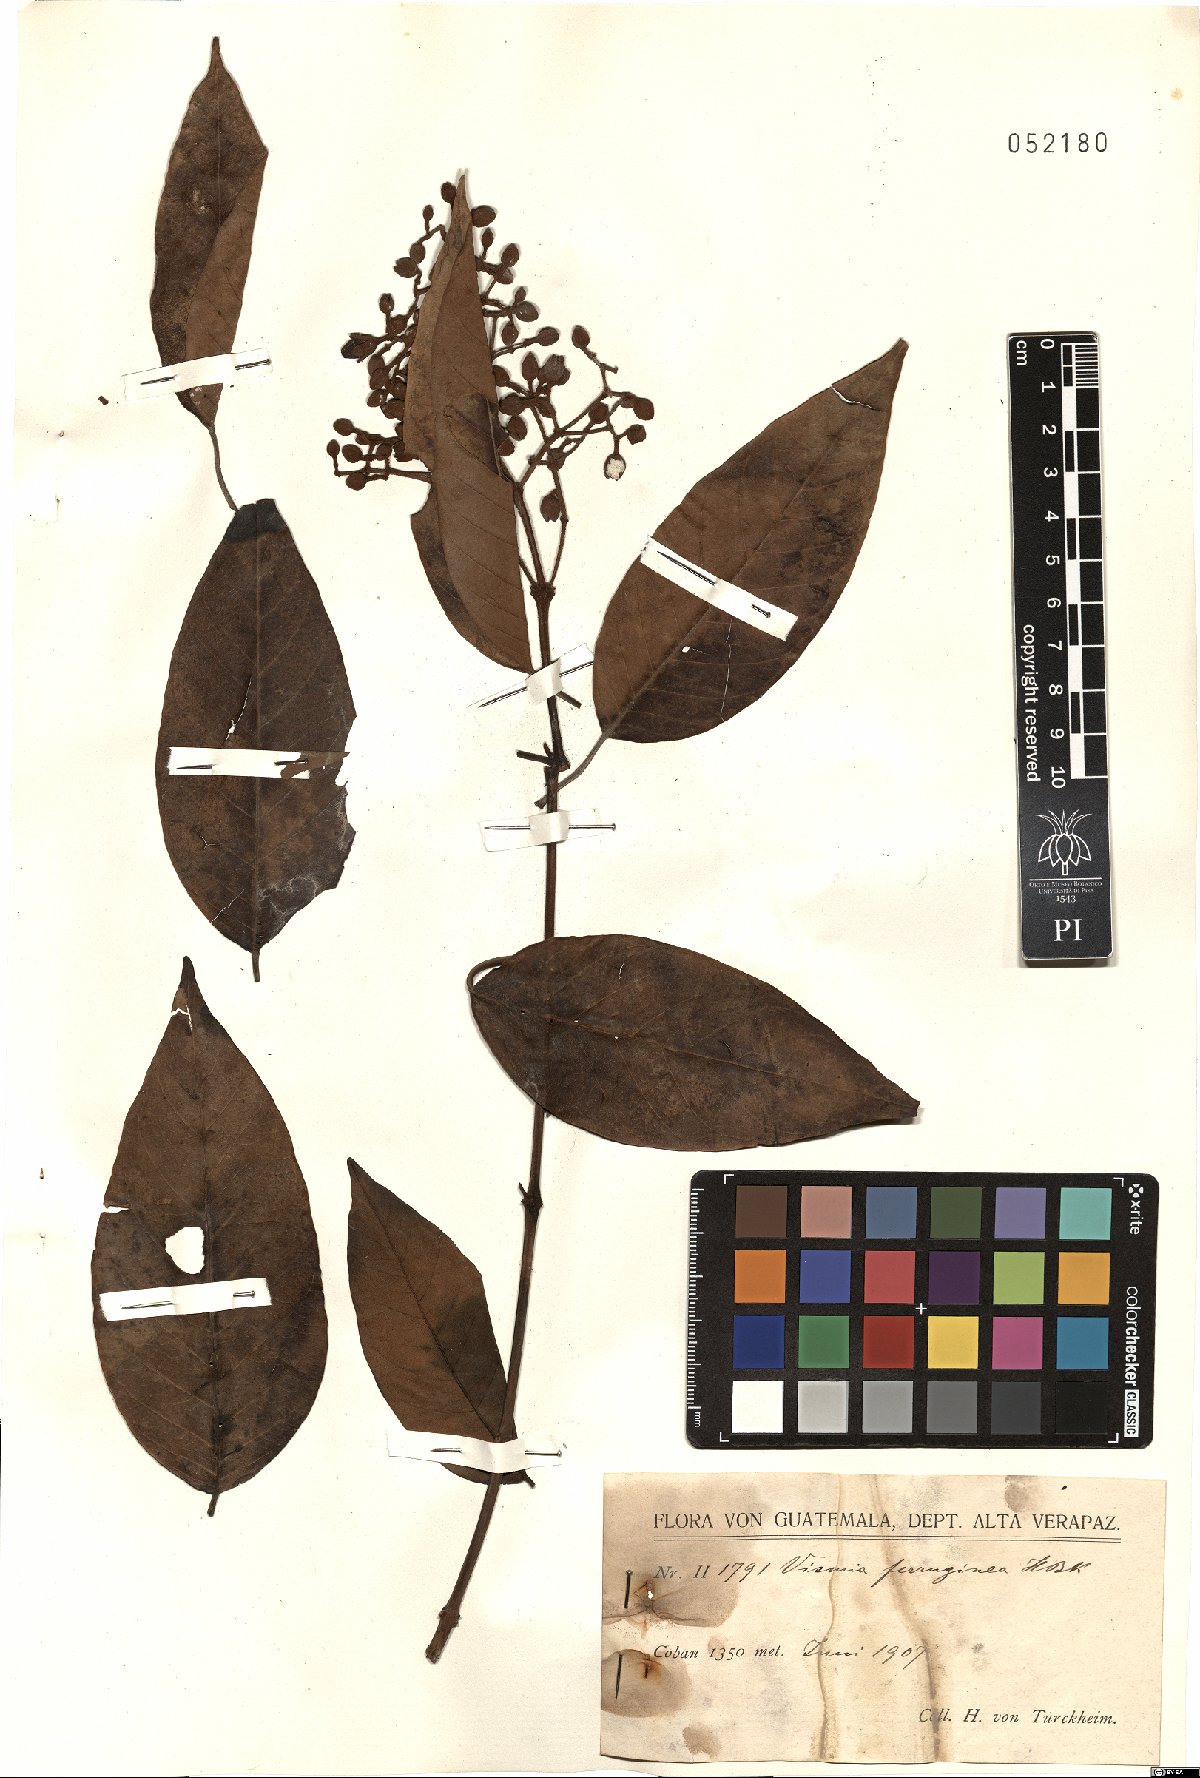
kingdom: Plantae
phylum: Tracheophyta
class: Magnoliopsida
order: Malpighiales
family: Hypericaceae
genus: Vismia
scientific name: Vismia ferruginea
